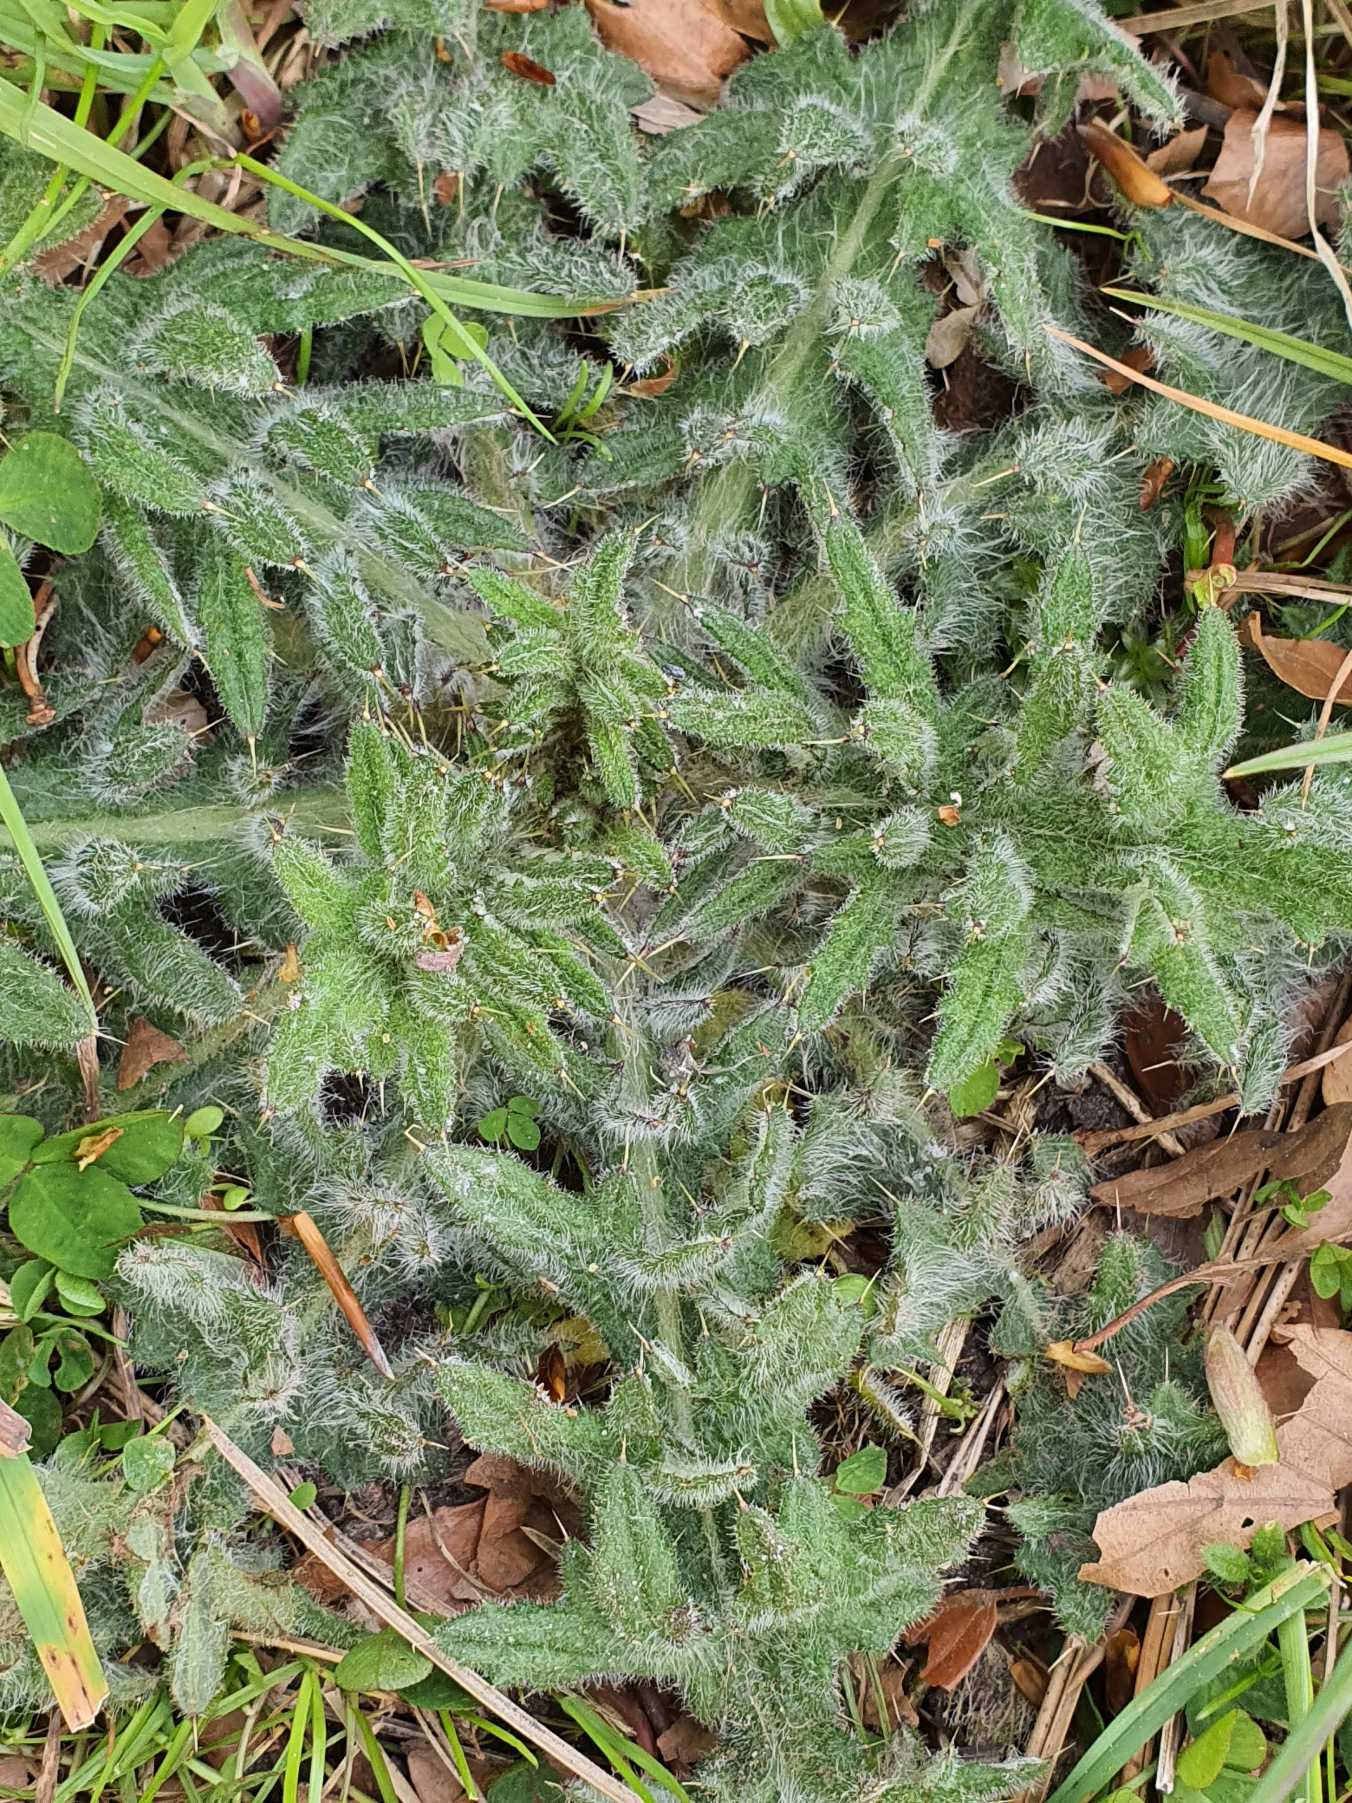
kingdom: Plantae
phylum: Tracheophyta
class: Magnoliopsida
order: Asterales
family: Asteraceae
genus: Cirsium
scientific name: Cirsium vulgare
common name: Horse-tidsel
